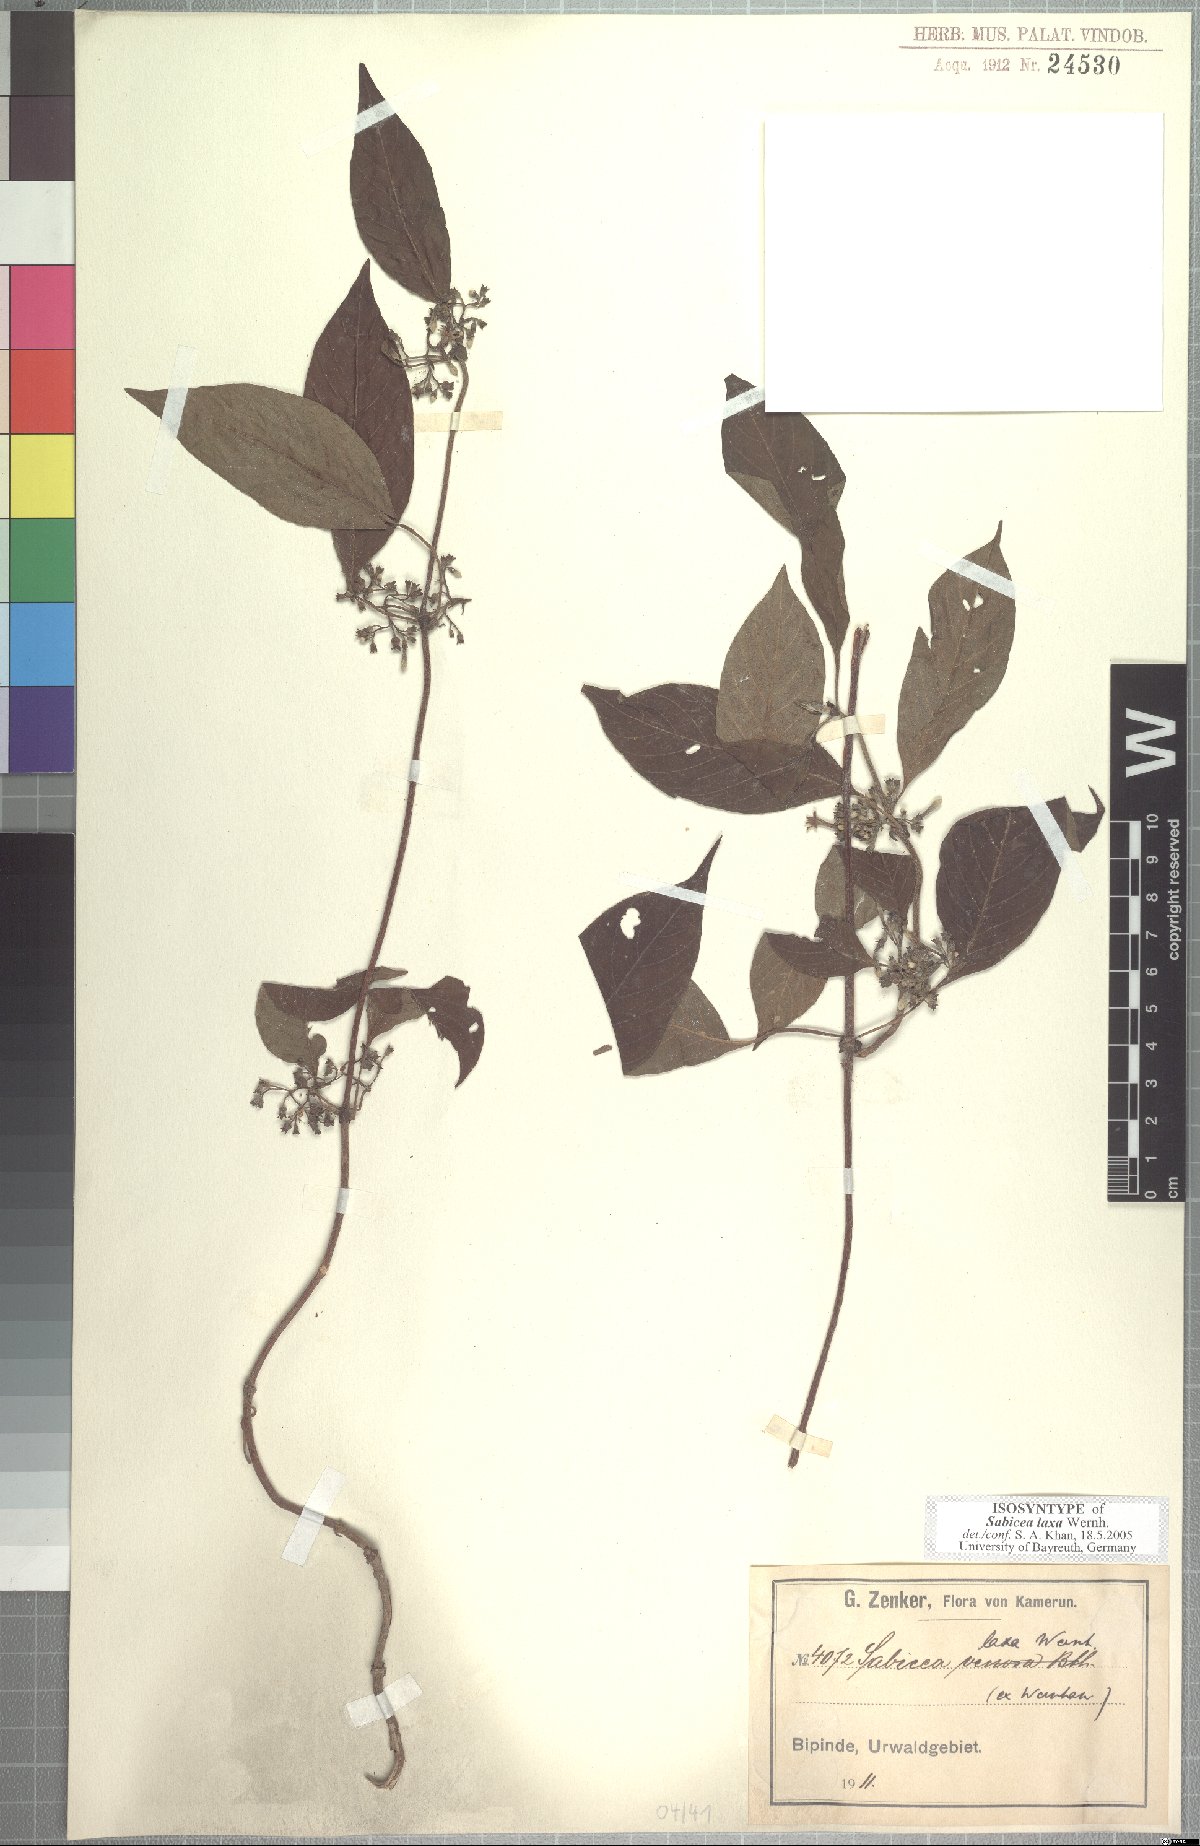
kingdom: Plantae
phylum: Tracheophyta
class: Magnoliopsida
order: Gentianales
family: Rubiaceae
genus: Sabicea
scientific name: Sabicea laxa
